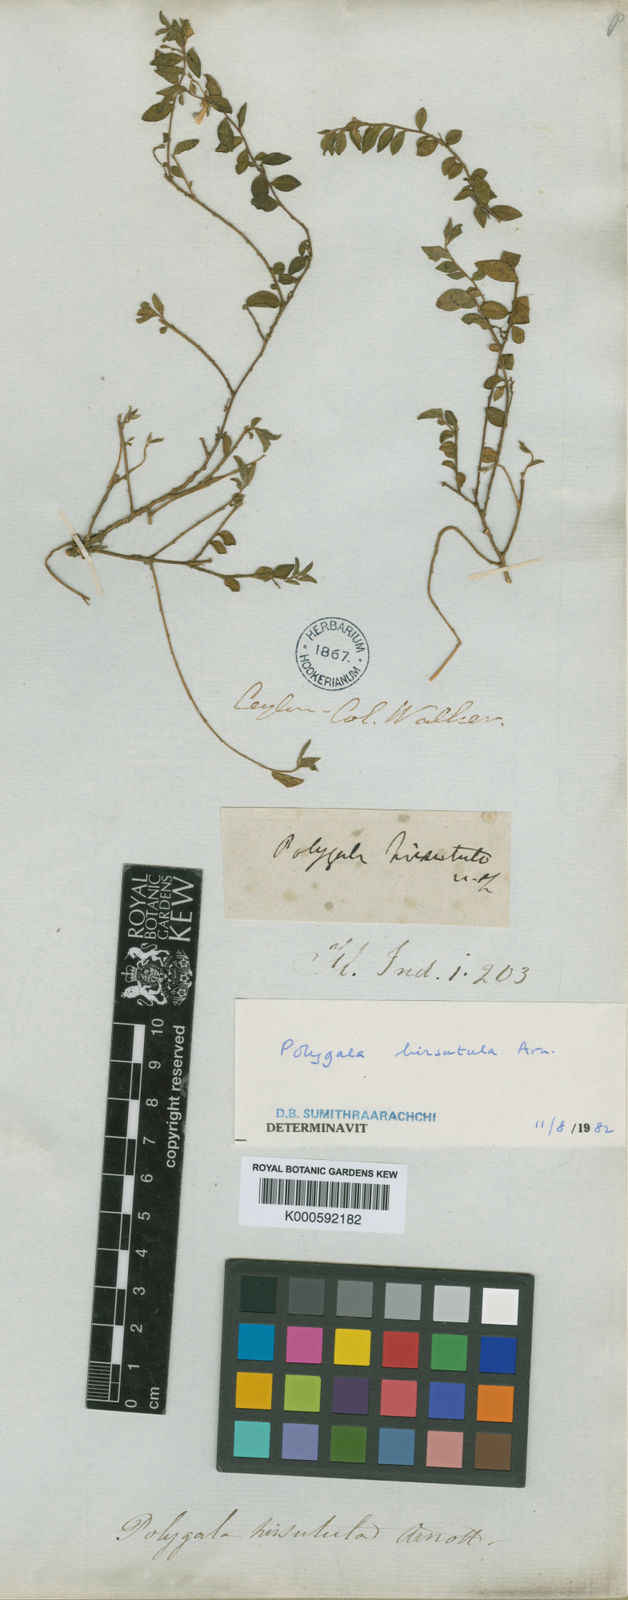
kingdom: Plantae
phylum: Tracheophyta
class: Magnoliopsida
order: Fabales
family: Polygalaceae
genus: Polygala
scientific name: Polygala
